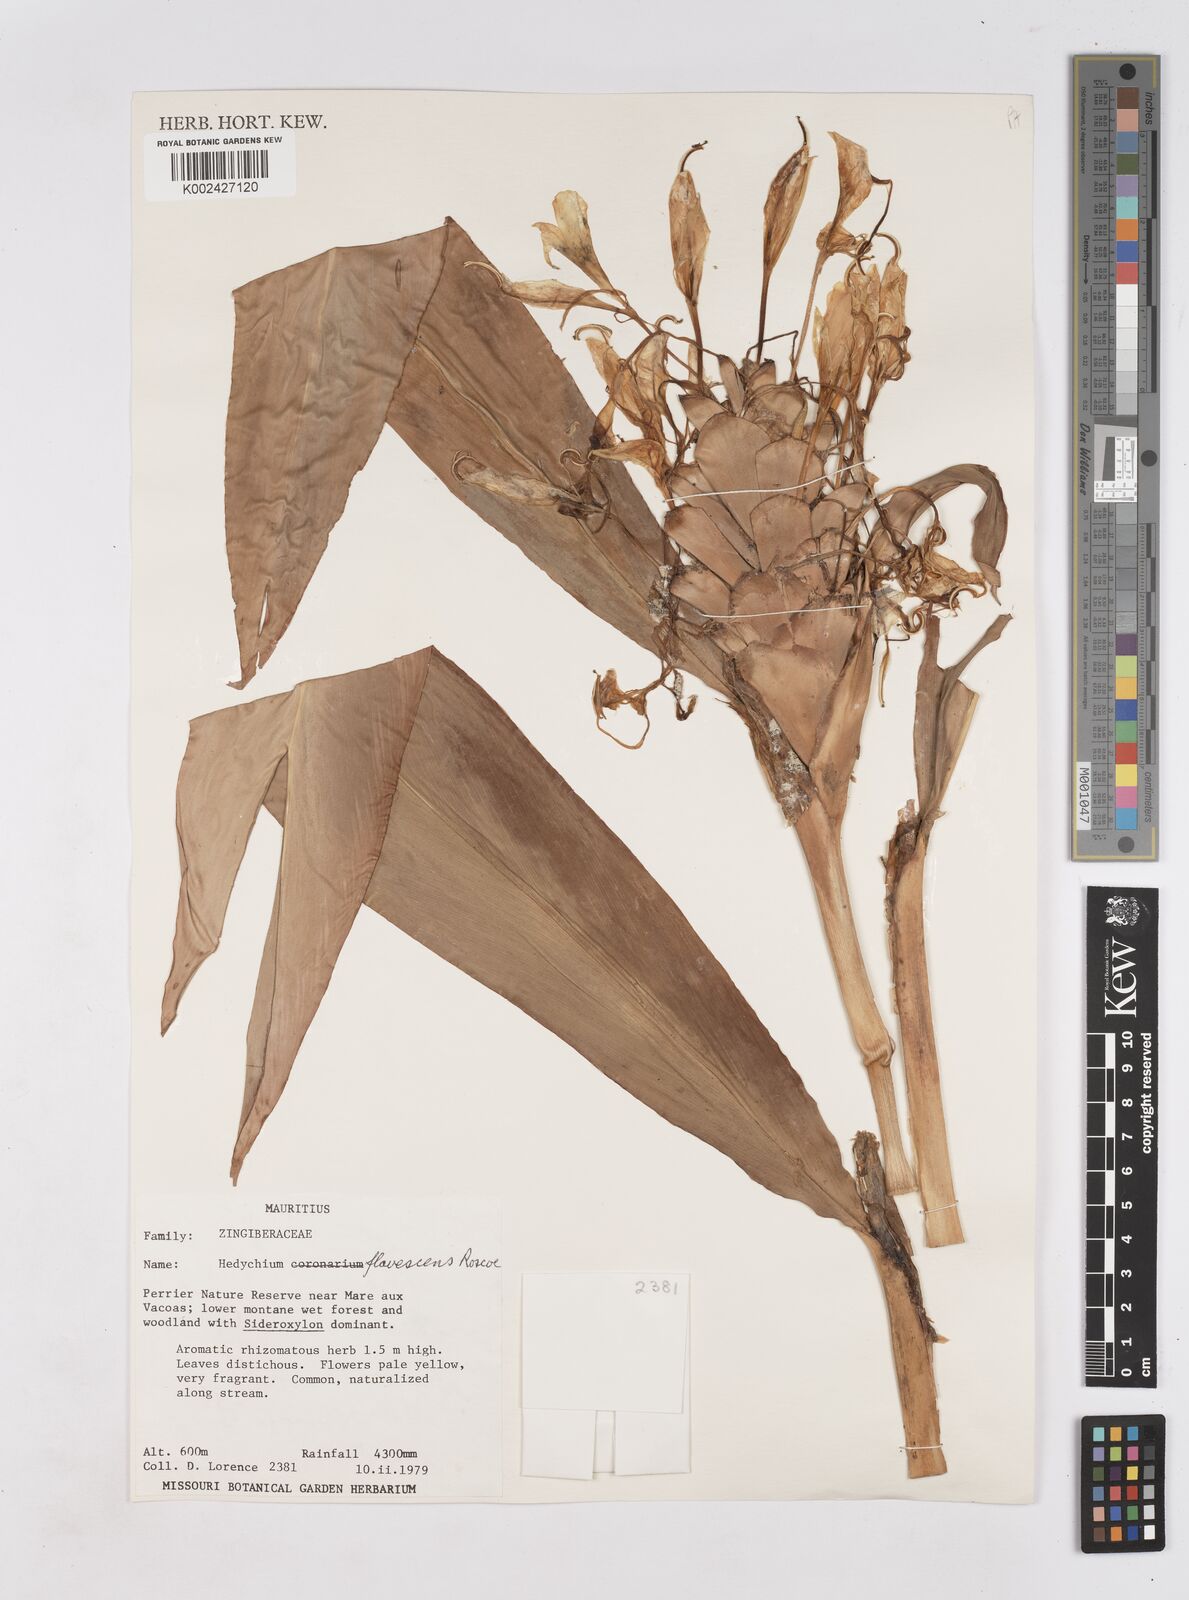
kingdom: Plantae
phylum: Tracheophyta
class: Liliopsida
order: Zingiberales
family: Zingiberaceae
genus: Hedychium
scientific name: Hedychium flavescens
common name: Yellow ginger
